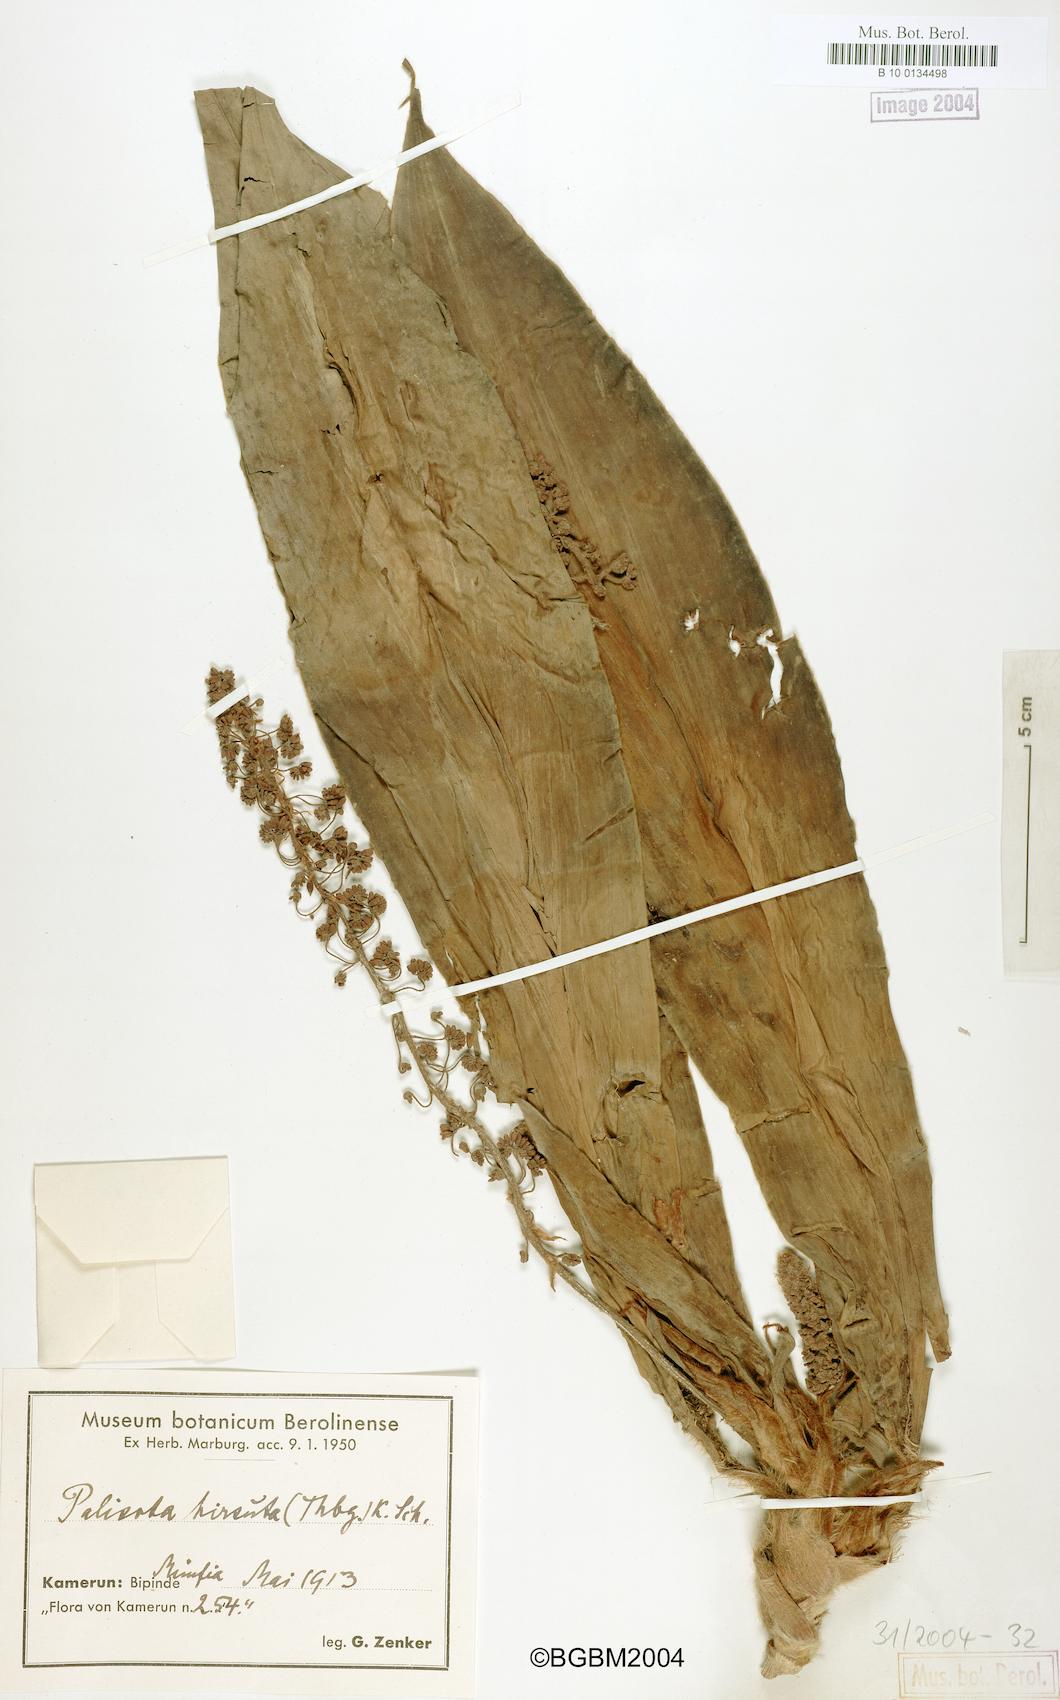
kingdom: Plantae
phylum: Tracheophyta
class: Liliopsida
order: Commelinales
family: Commelinaceae
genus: Palisota
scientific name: Palisota hirsuta
